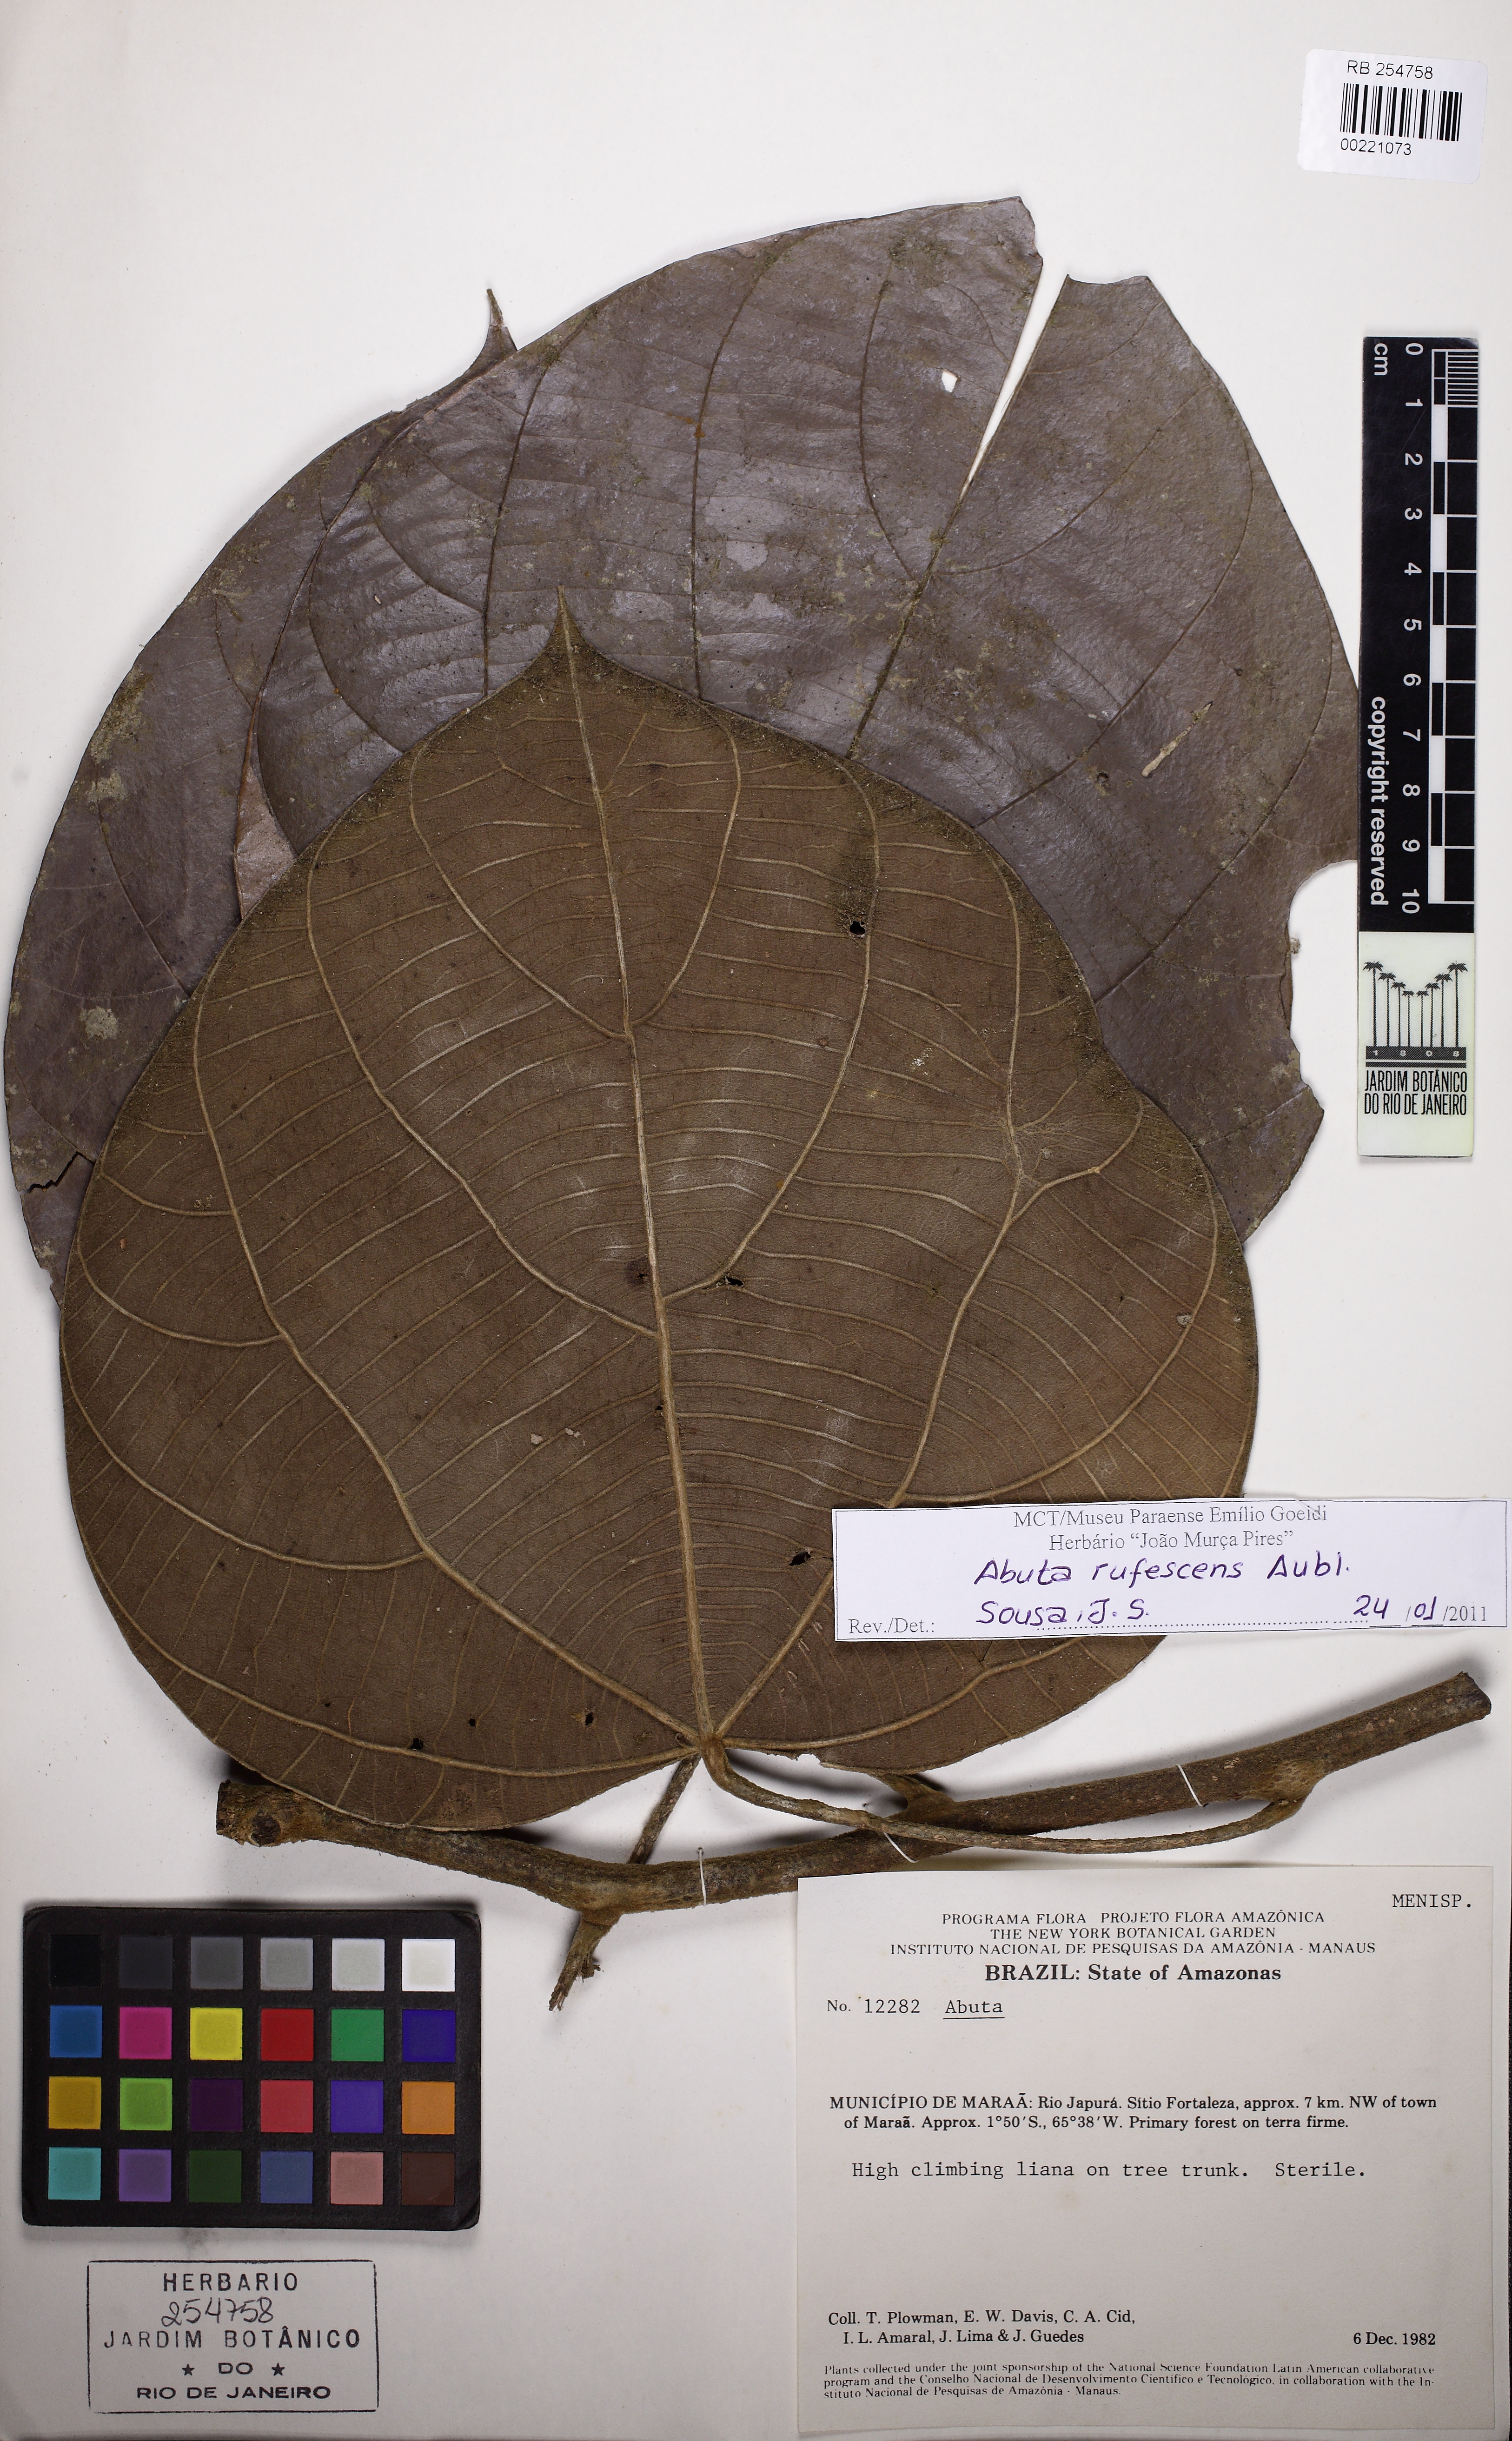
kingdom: Plantae
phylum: Tracheophyta
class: Magnoliopsida
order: Ranunculales
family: Menispermaceae
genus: Abuta
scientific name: Abuta rufescens
